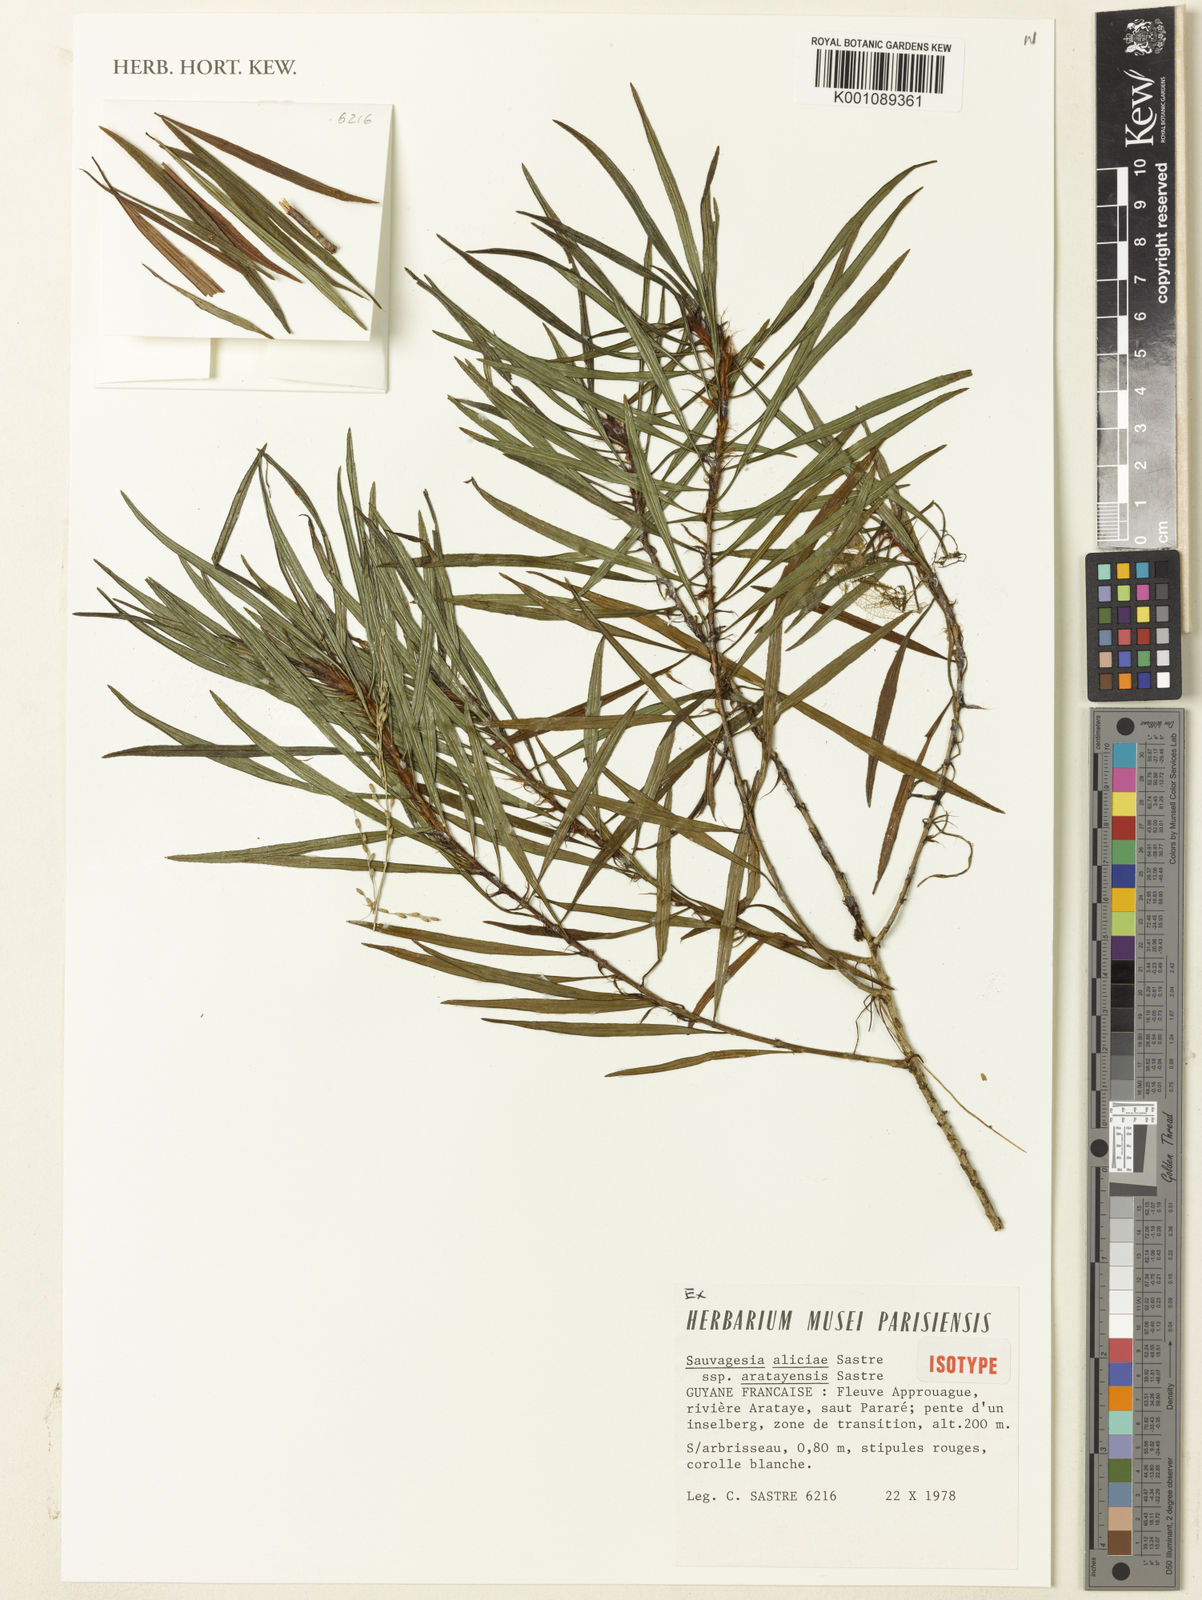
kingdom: Plantae
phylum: Tracheophyta
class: Magnoliopsida
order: Malpighiales
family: Ochnaceae
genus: Sauvagesia
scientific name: Sauvagesia aliciae
